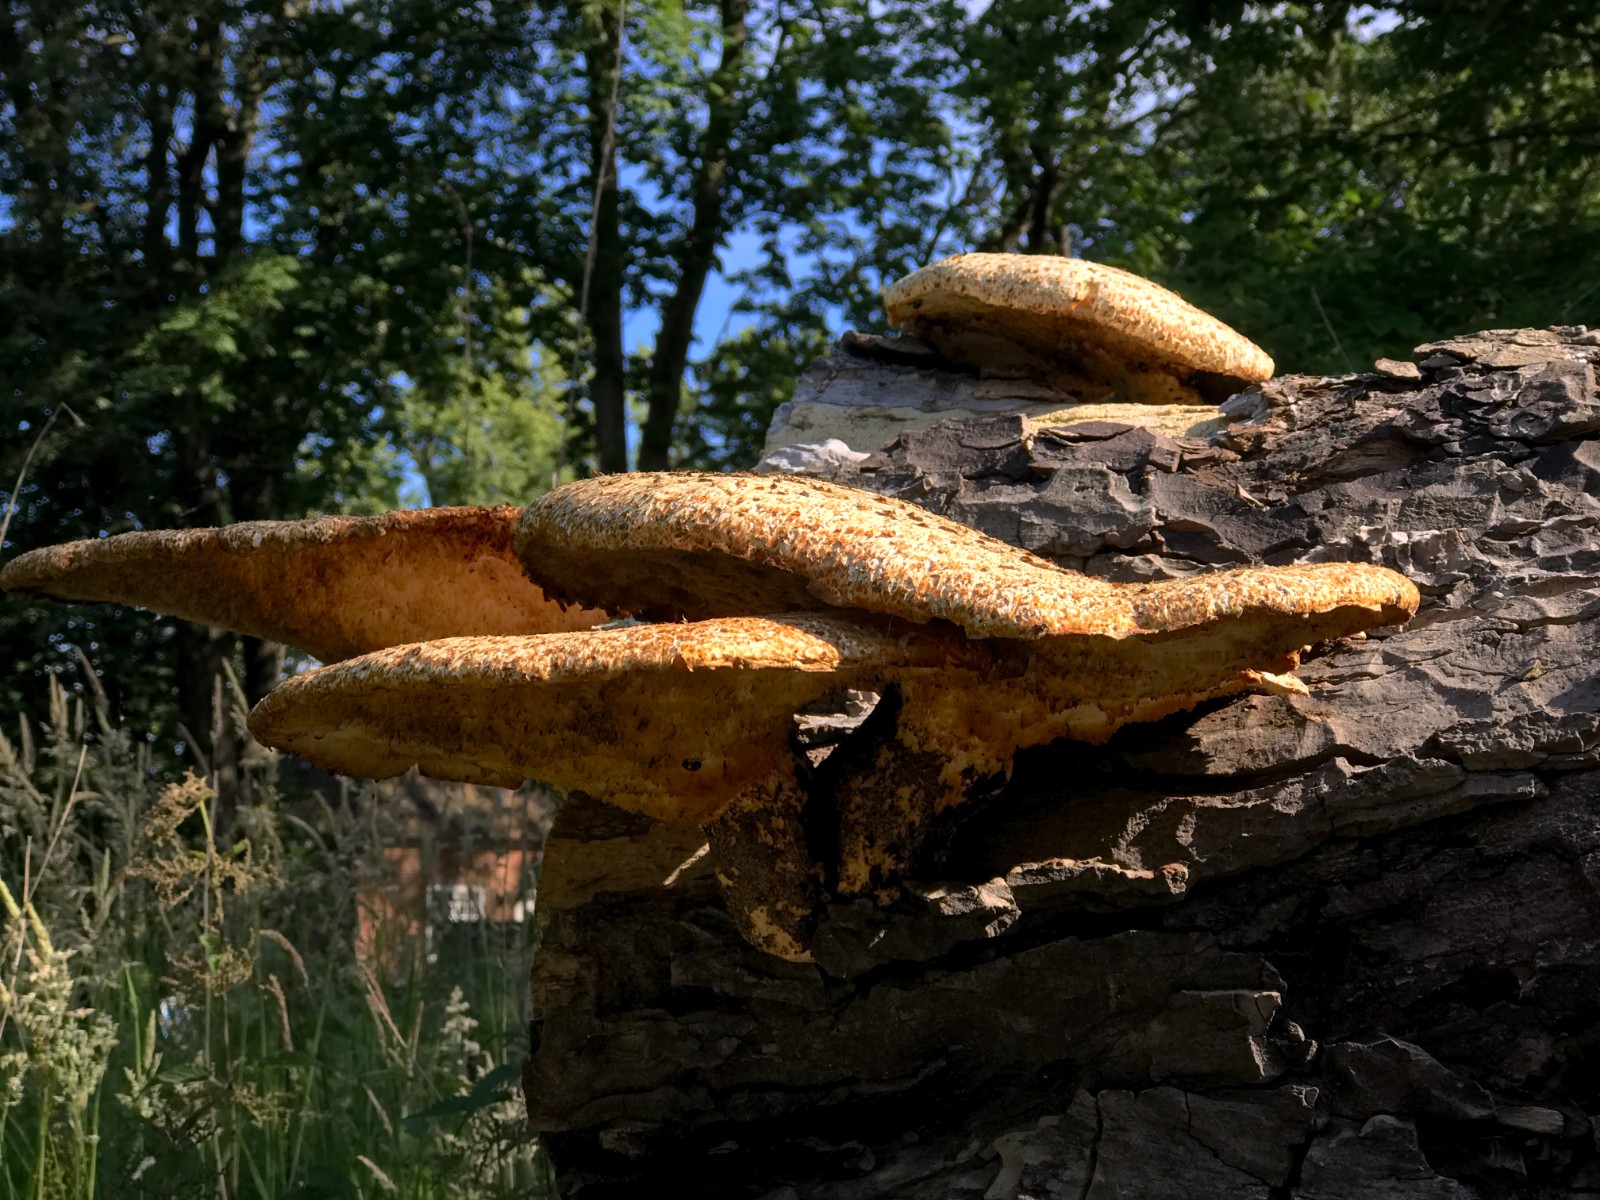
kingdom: Fungi
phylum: Basidiomycota
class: Agaricomycetes
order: Polyporales
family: Polyporaceae
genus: Cerioporus
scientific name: Cerioporus squamosus
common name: skællet stilkporesvamp
